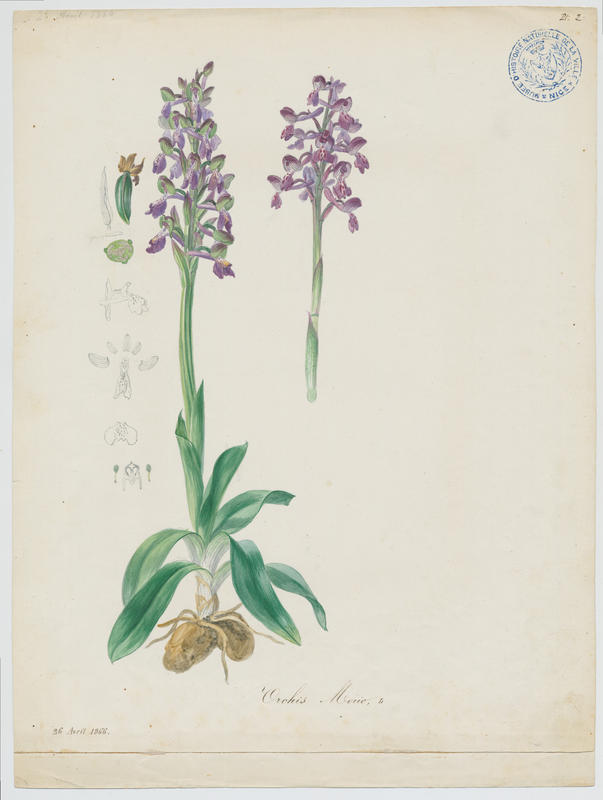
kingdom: Plantae
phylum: Tracheophyta
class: Liliopsida
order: Asparagales
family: Orchidaceae
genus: Anacamptis
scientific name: Anacamptis morio
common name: Green-winged orchid
